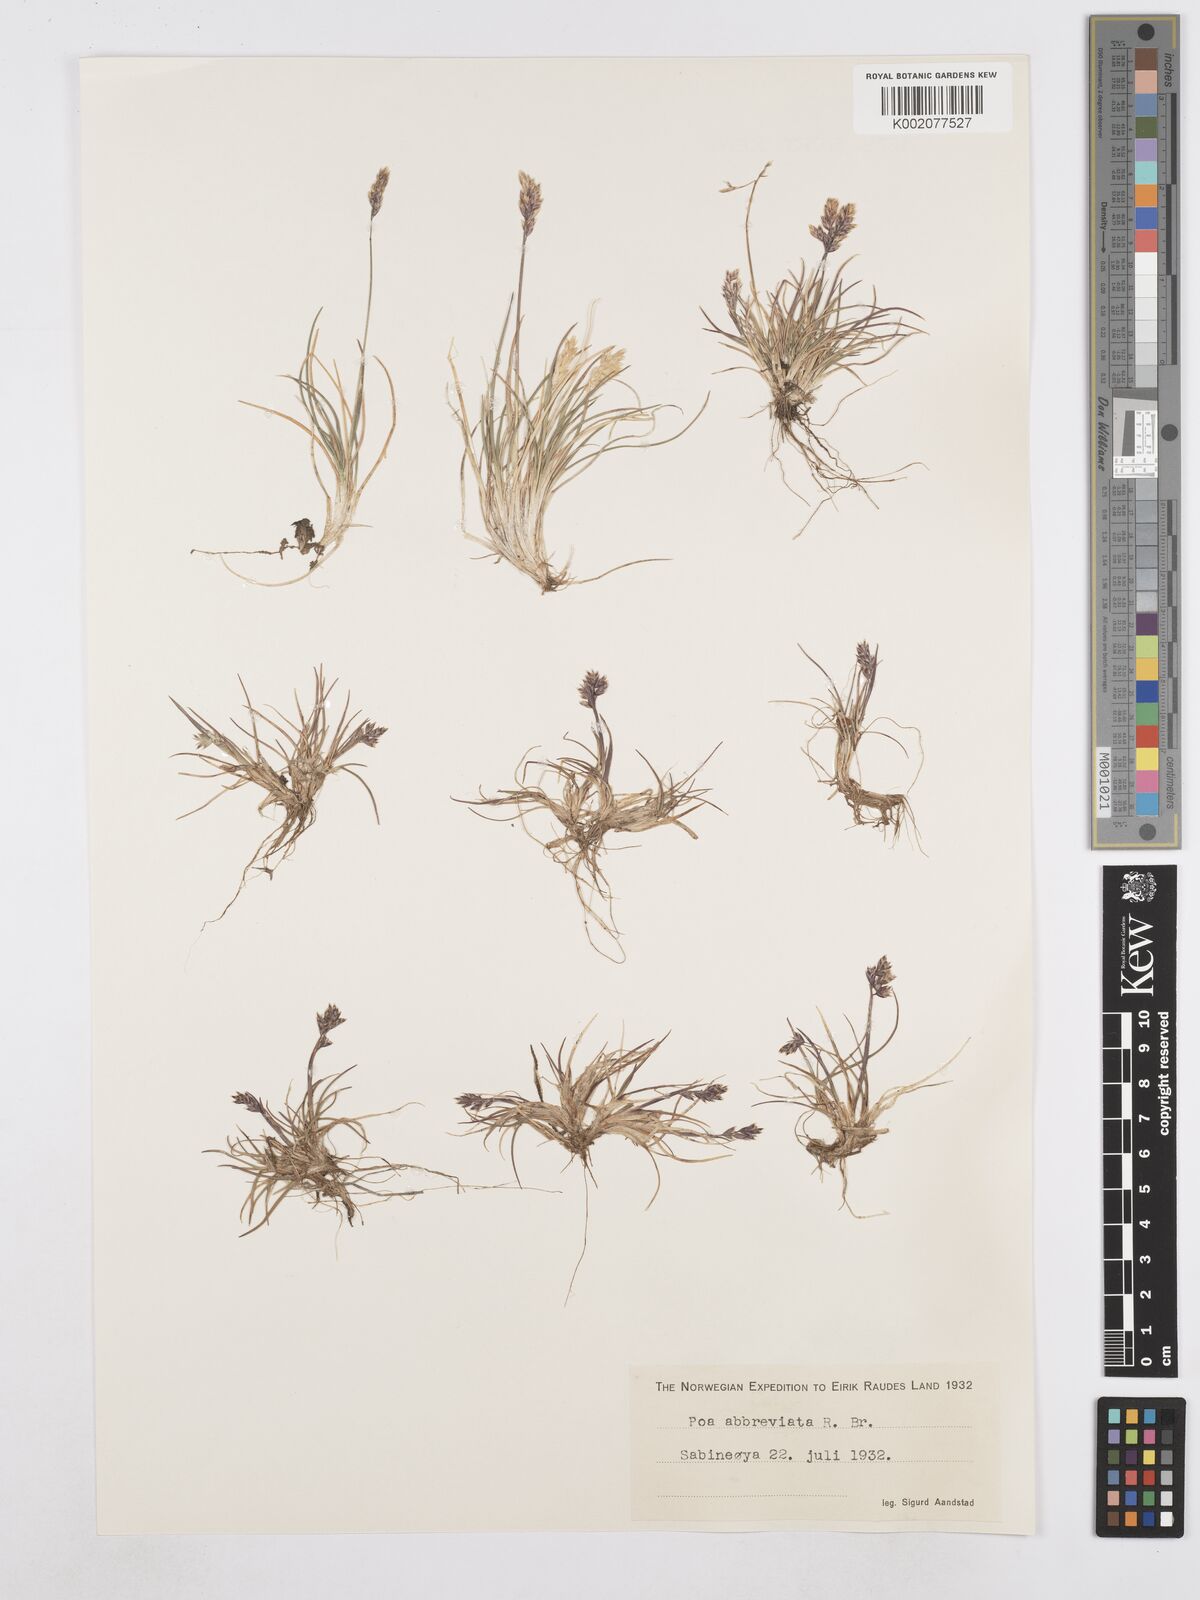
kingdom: Plantae
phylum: Tracheophyta
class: Liliopsida
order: Poales
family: Poaceae
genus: Poa
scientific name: Poa abbreviata
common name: Abbreviated bluegrass
